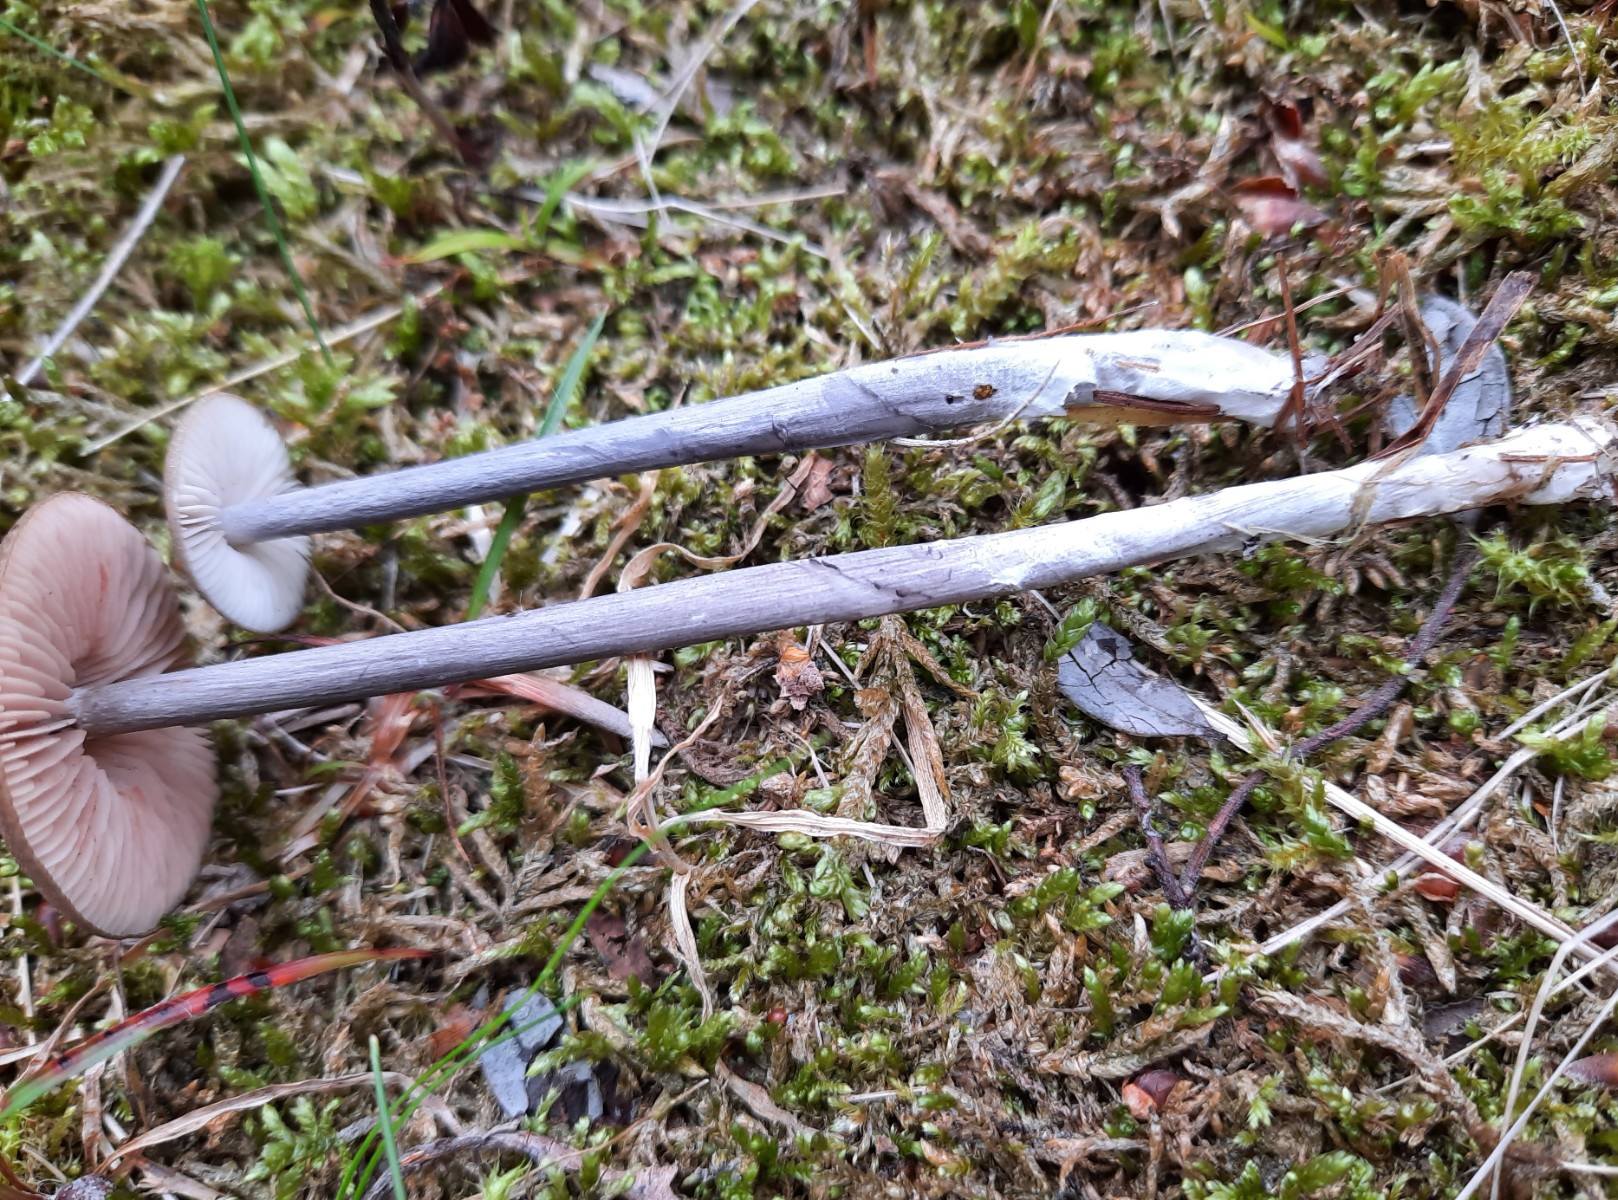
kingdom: Fungi
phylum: Basidiomycota
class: Agaricomycetes
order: Agaricales
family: Entolomataceae
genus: Entoloma
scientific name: Entoloma griseocyaneum
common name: gråblå rødblad
